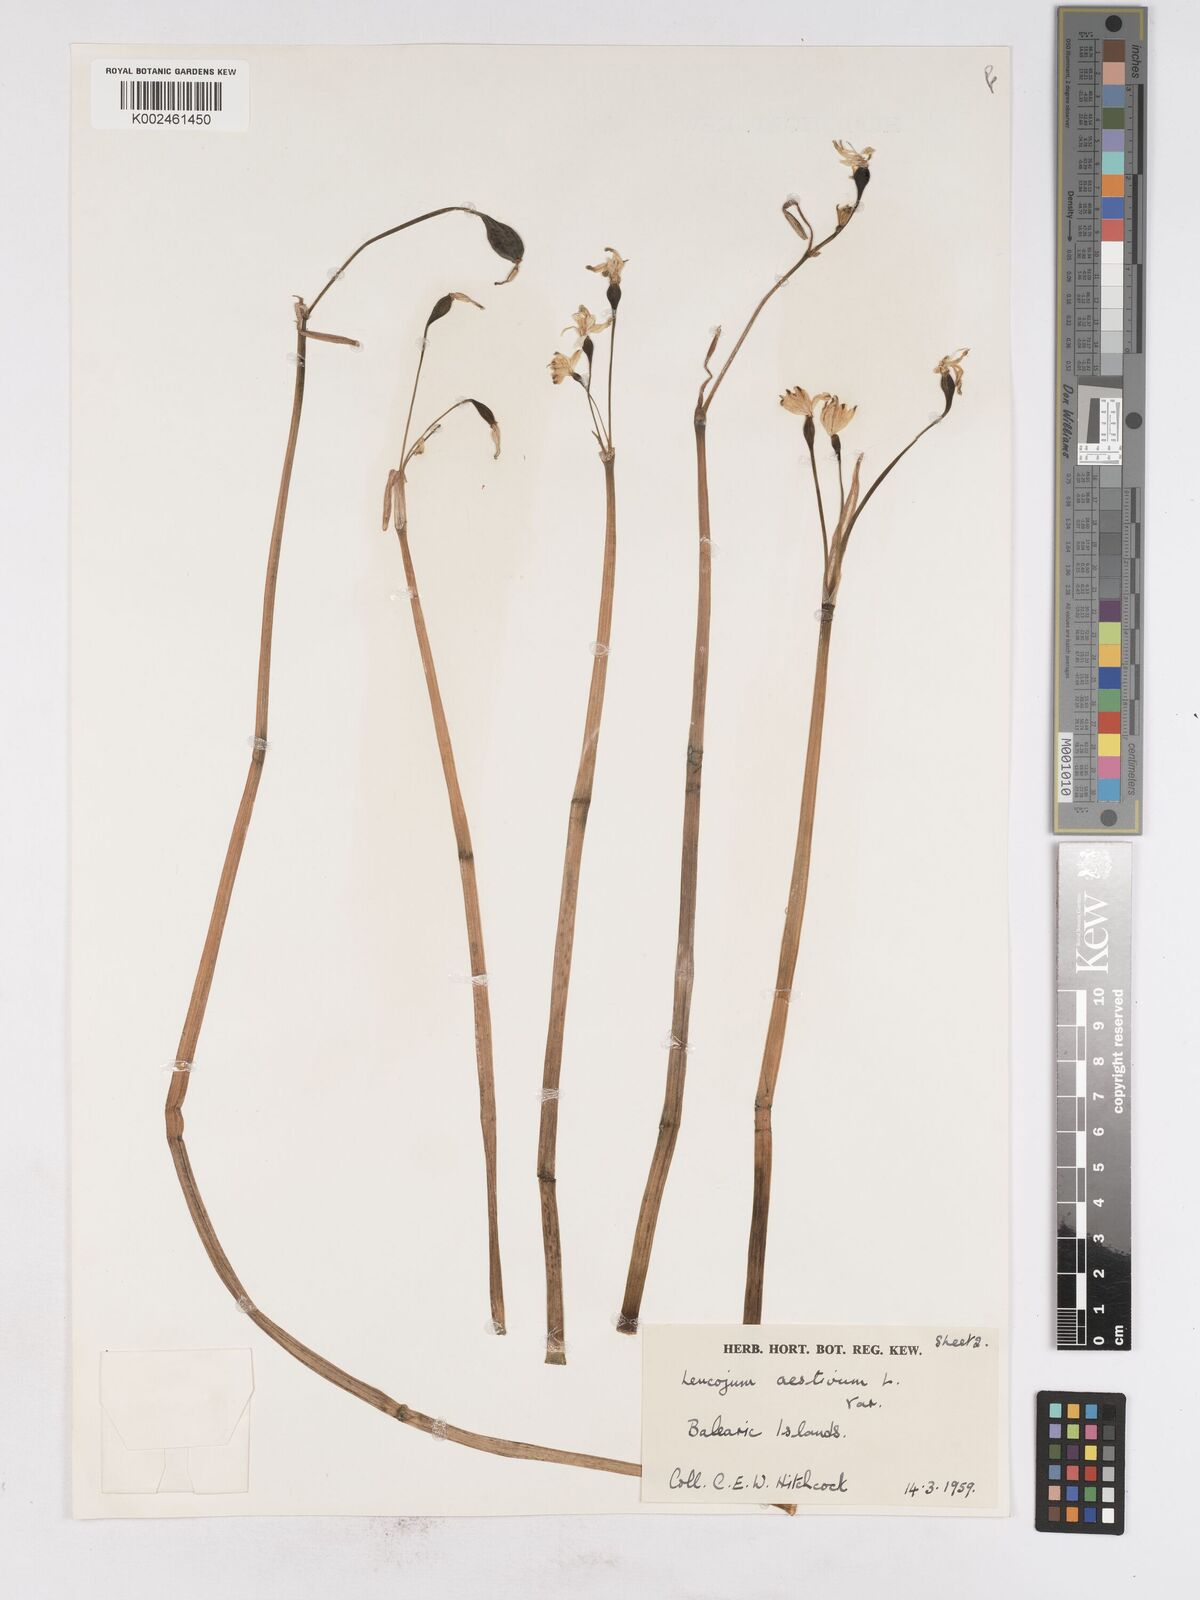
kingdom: Plantae
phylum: Tracheophyta
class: Liliopsida
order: Asparagales
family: Amaryllidaceae
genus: Leucojum
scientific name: Leucojum aestivum
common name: Summer snowflake
